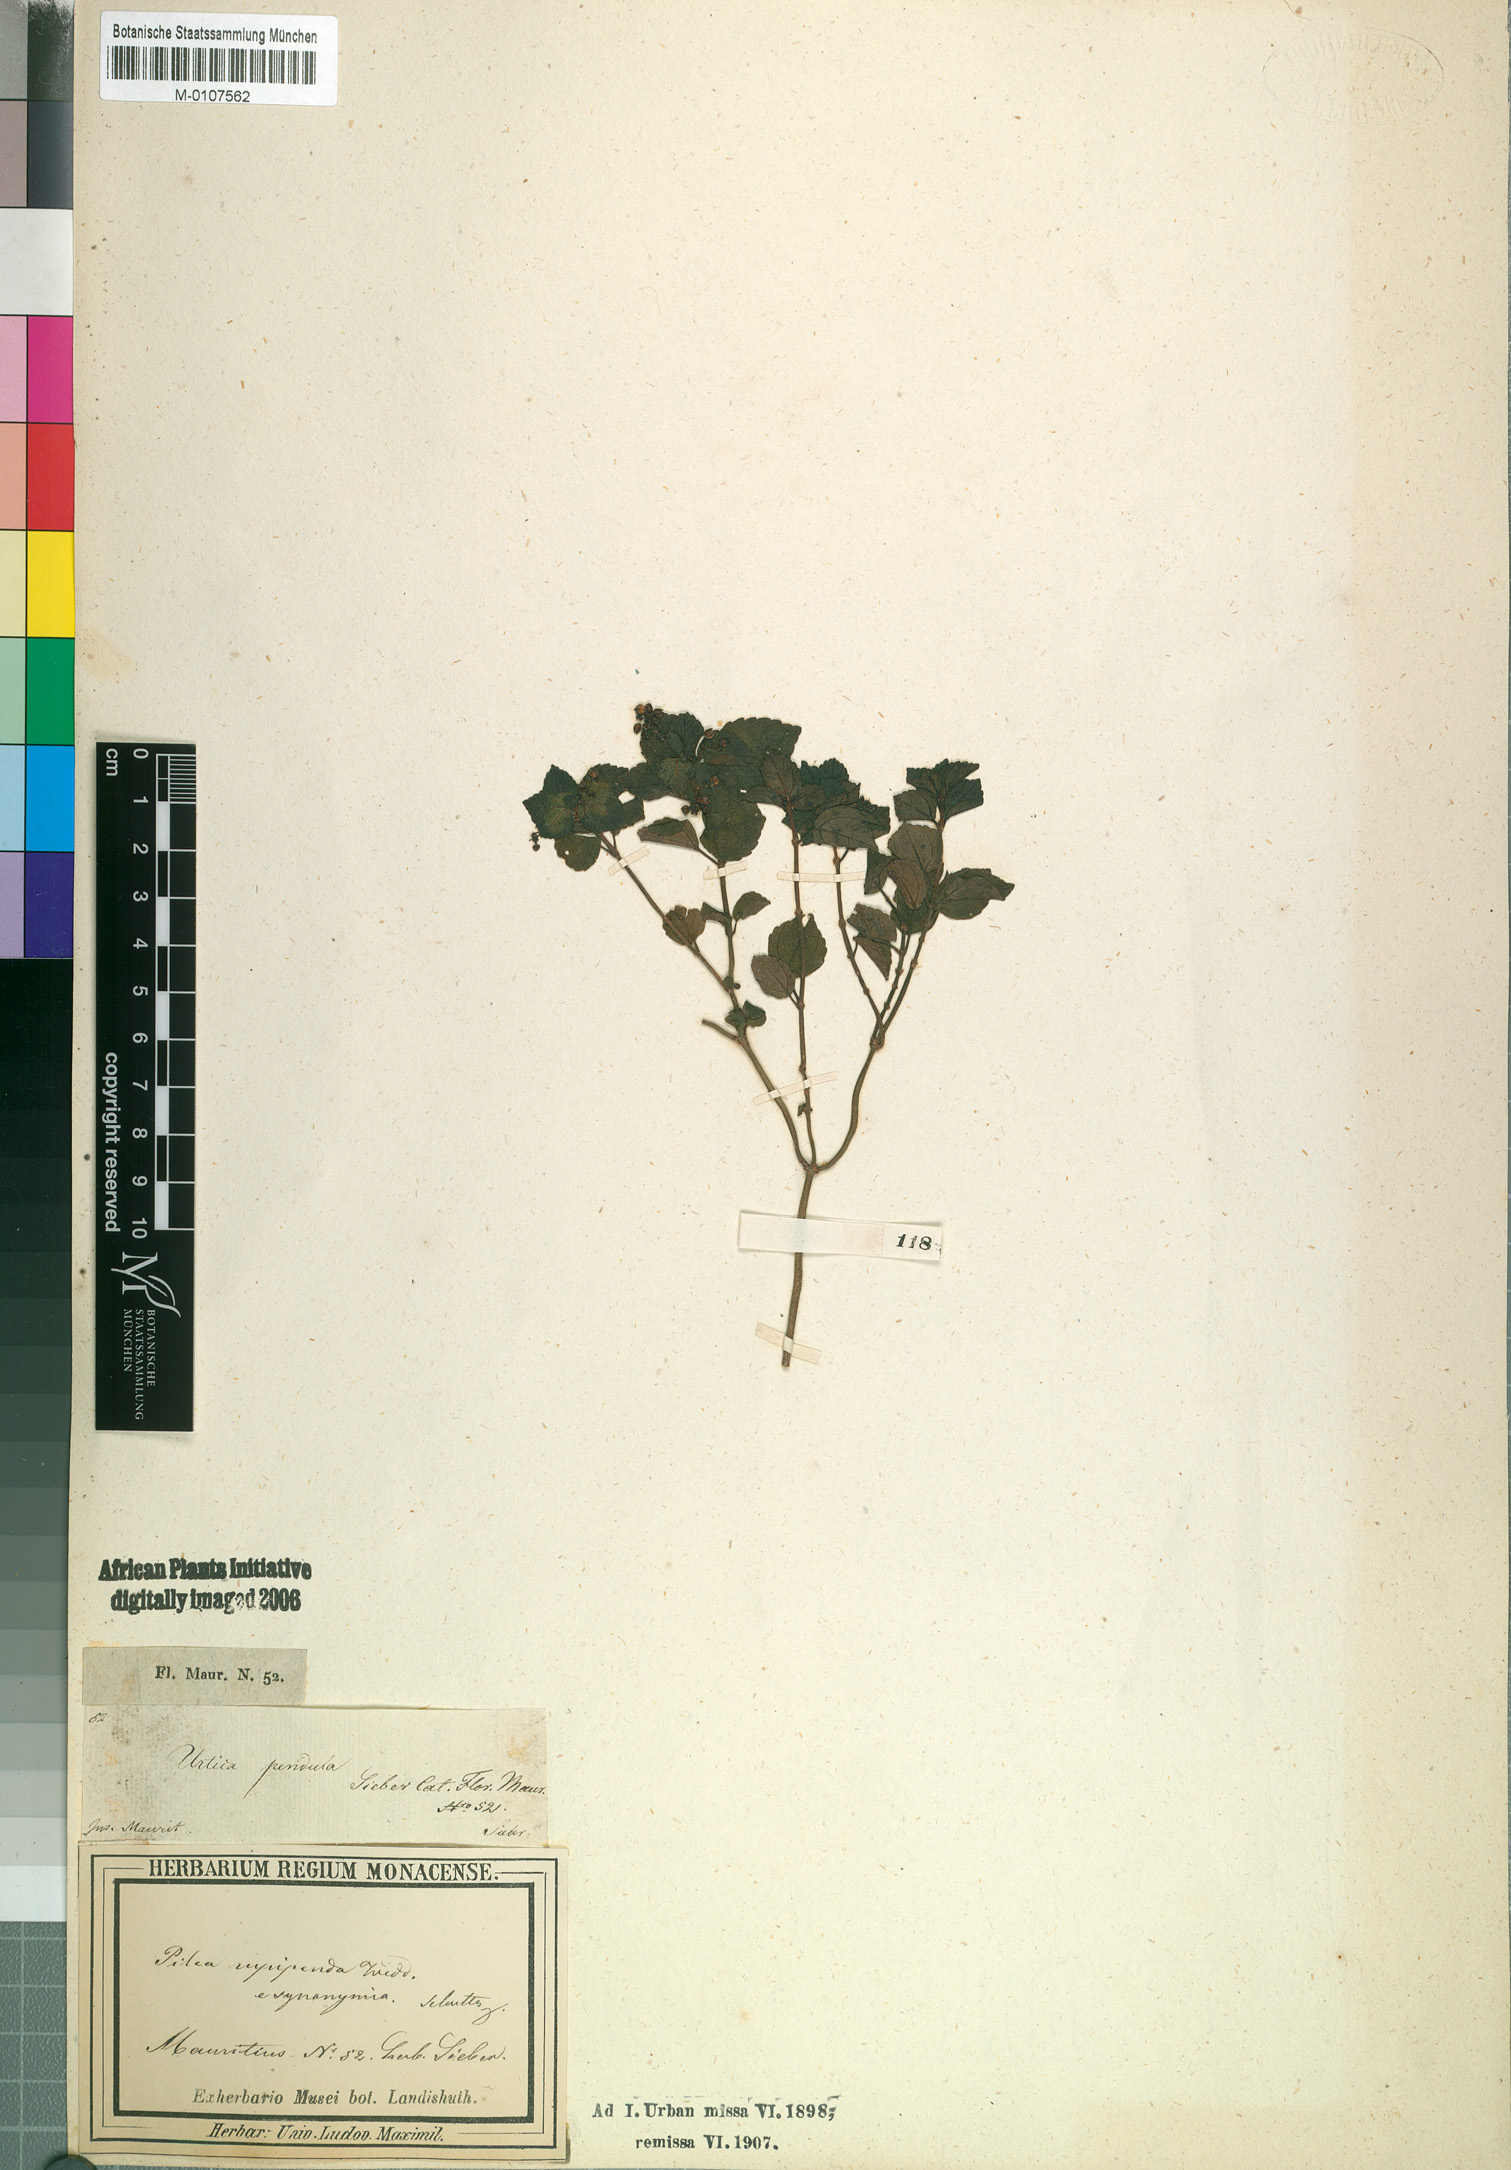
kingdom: Plantae
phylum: Tracheophyta
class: Magnoliopsida
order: Rosales
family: Urticaceae
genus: Pilea
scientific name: Pilea urticifolia
